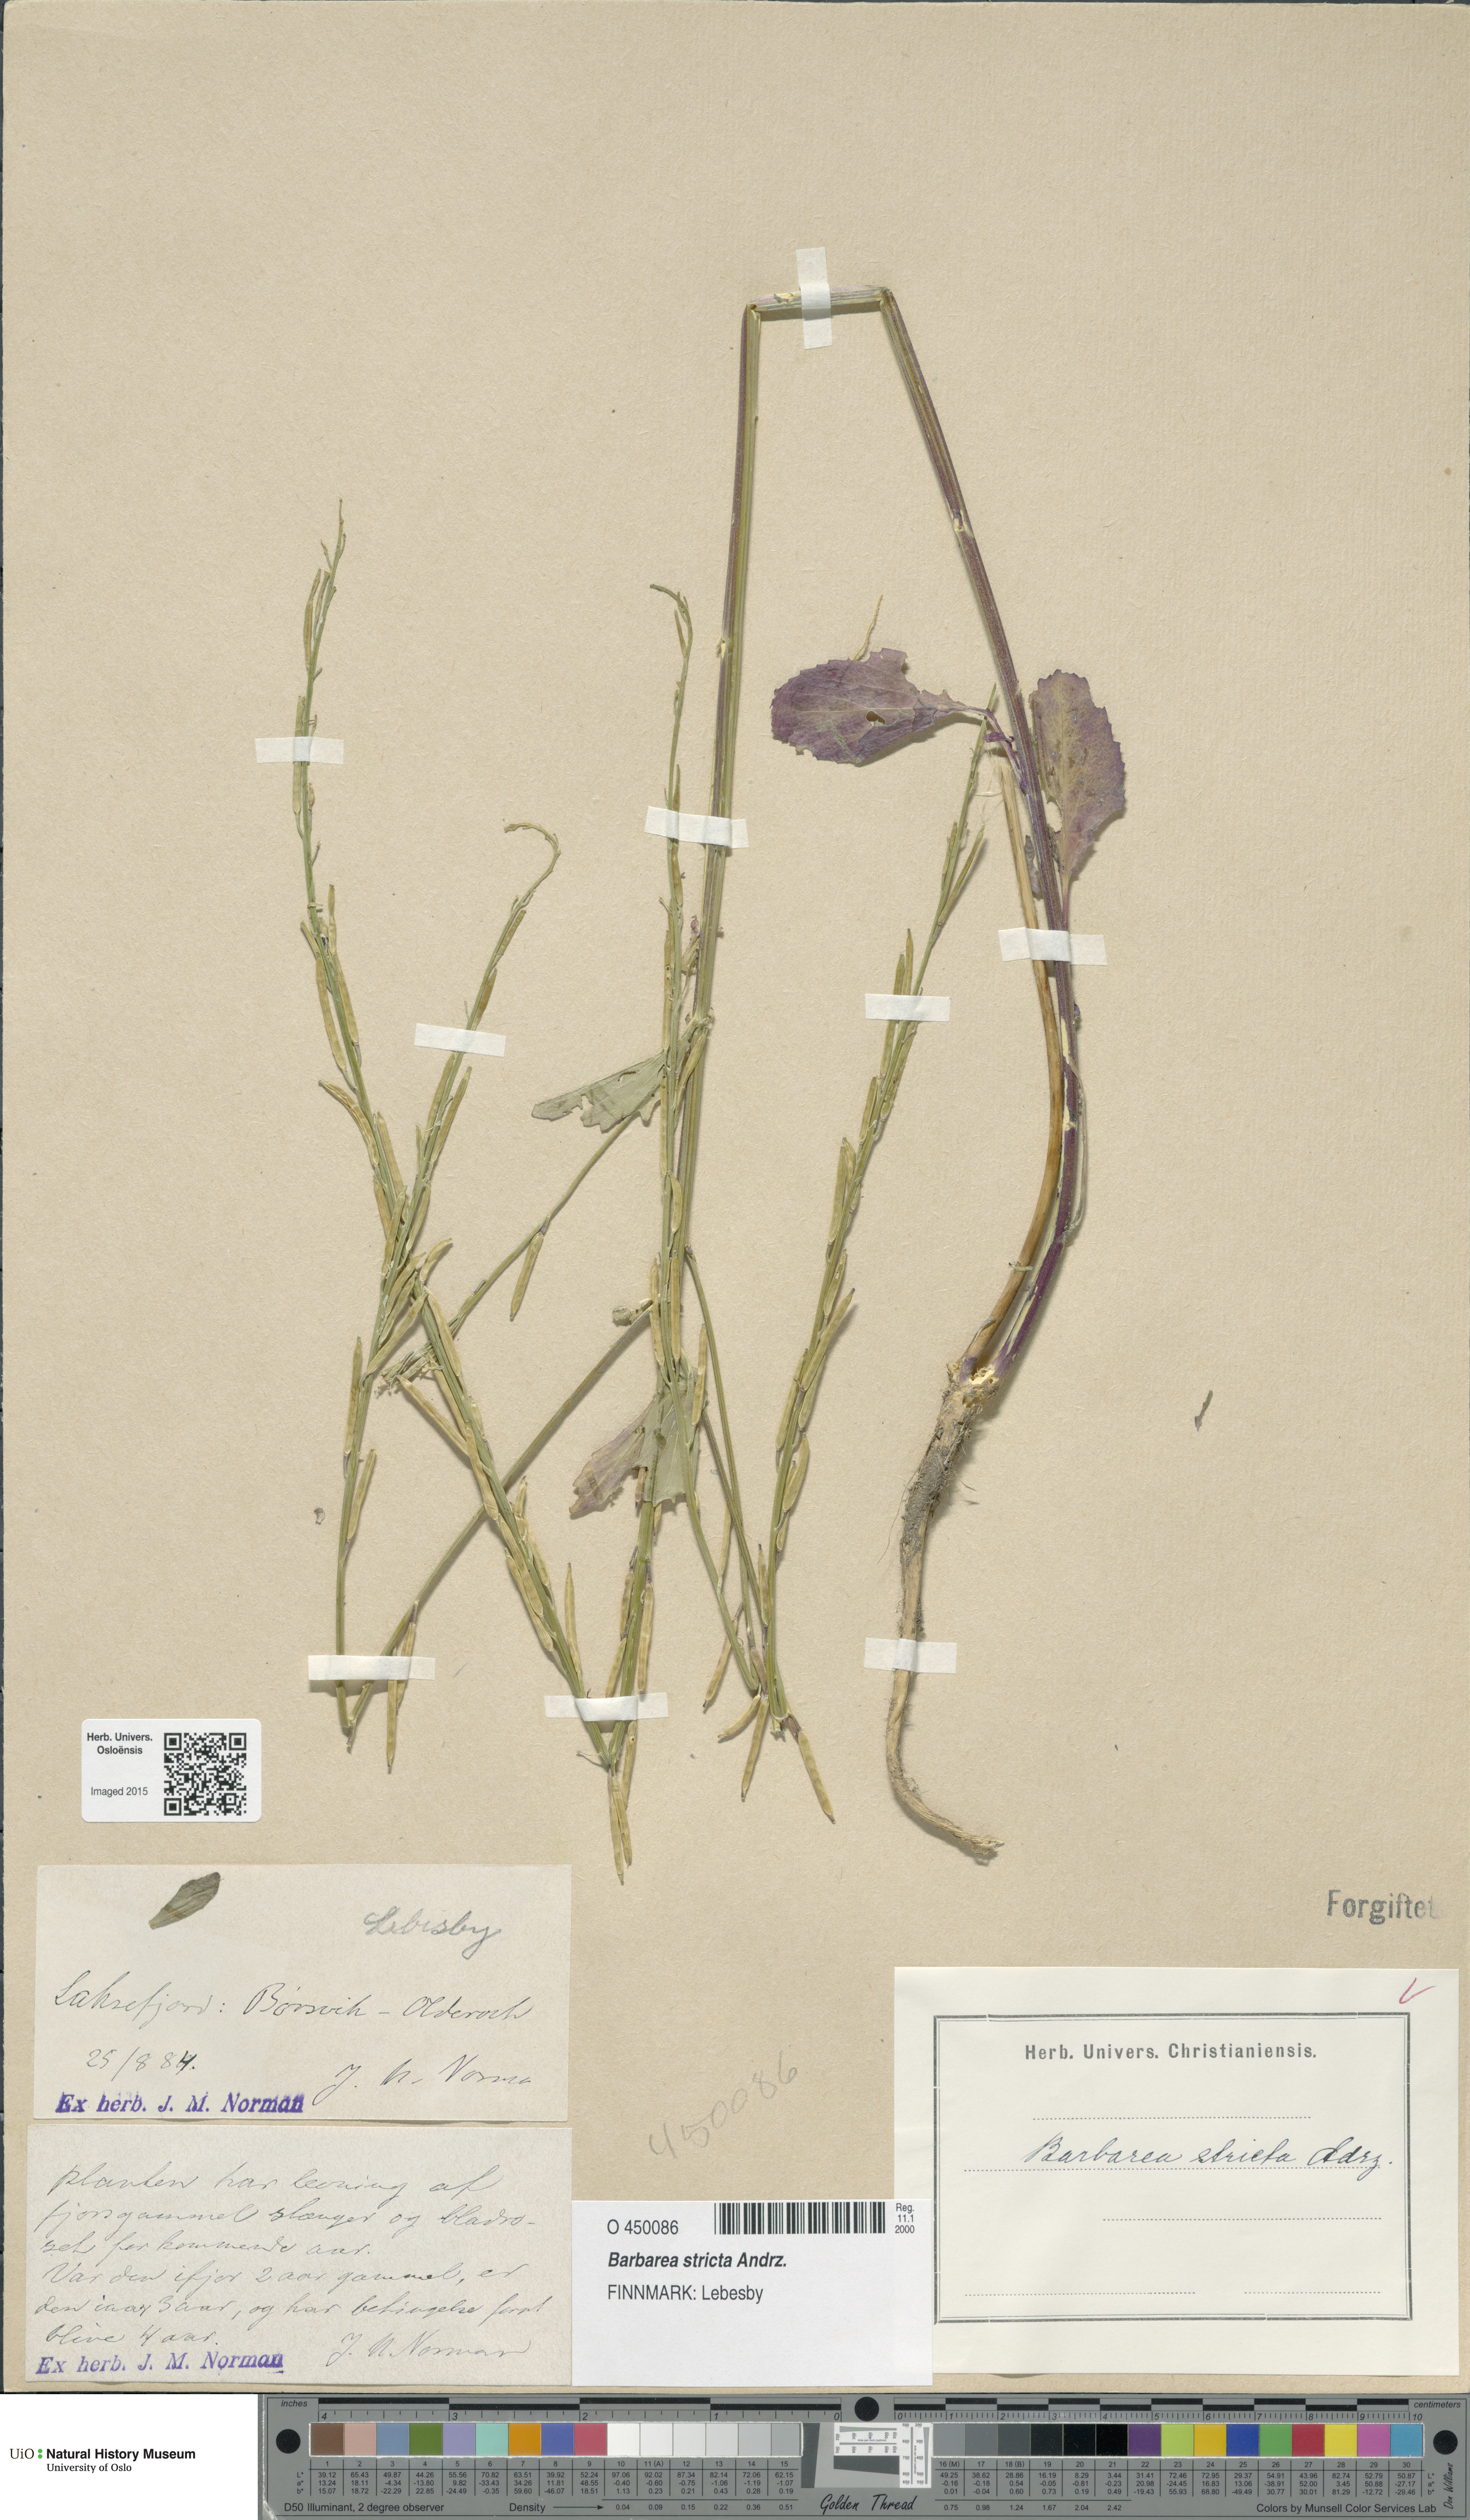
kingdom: Plantae
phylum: Tracheophyta
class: Magnoliopsida
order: Brassicales
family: Brassicaceae
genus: Barbarea
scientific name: Barbarea stricta
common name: Small-flowered winter-cress
